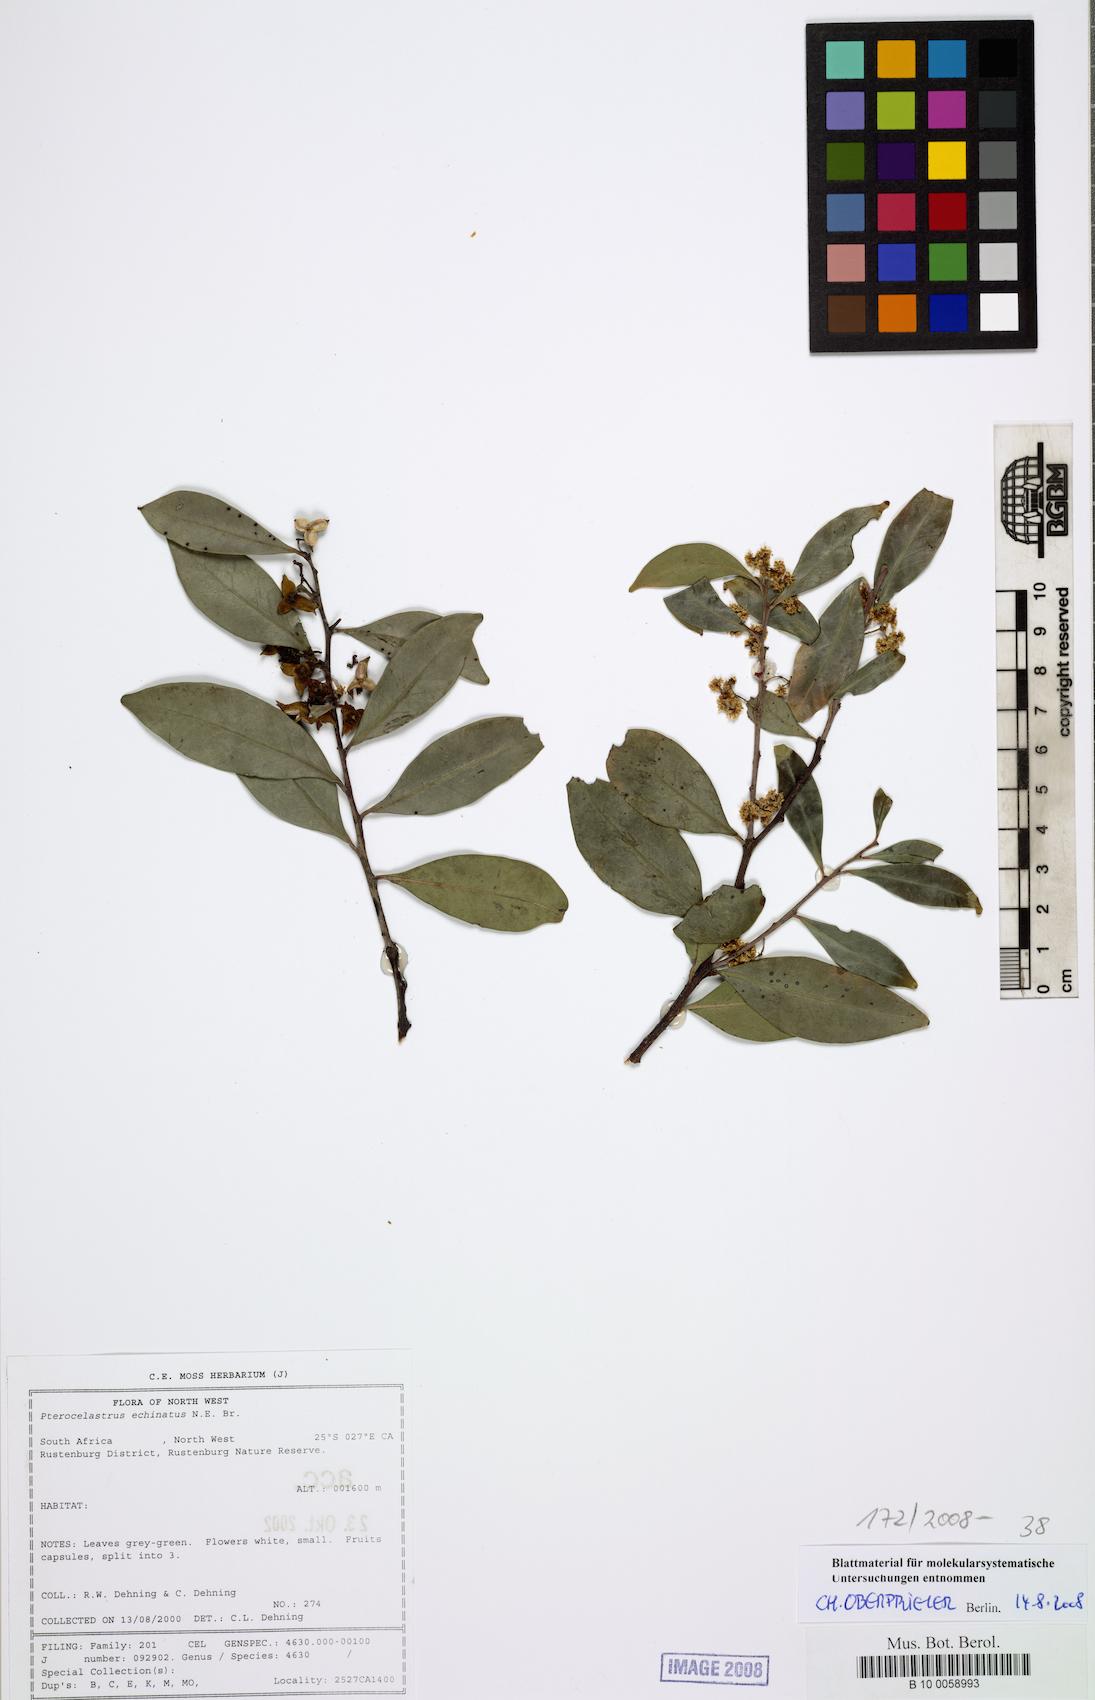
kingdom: Plantae
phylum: Tracheophyta
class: Magnoliopsida
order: Celastrales
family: Celastraceae
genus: Pterocelastrus
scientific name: Pterocelastrus echinatus
